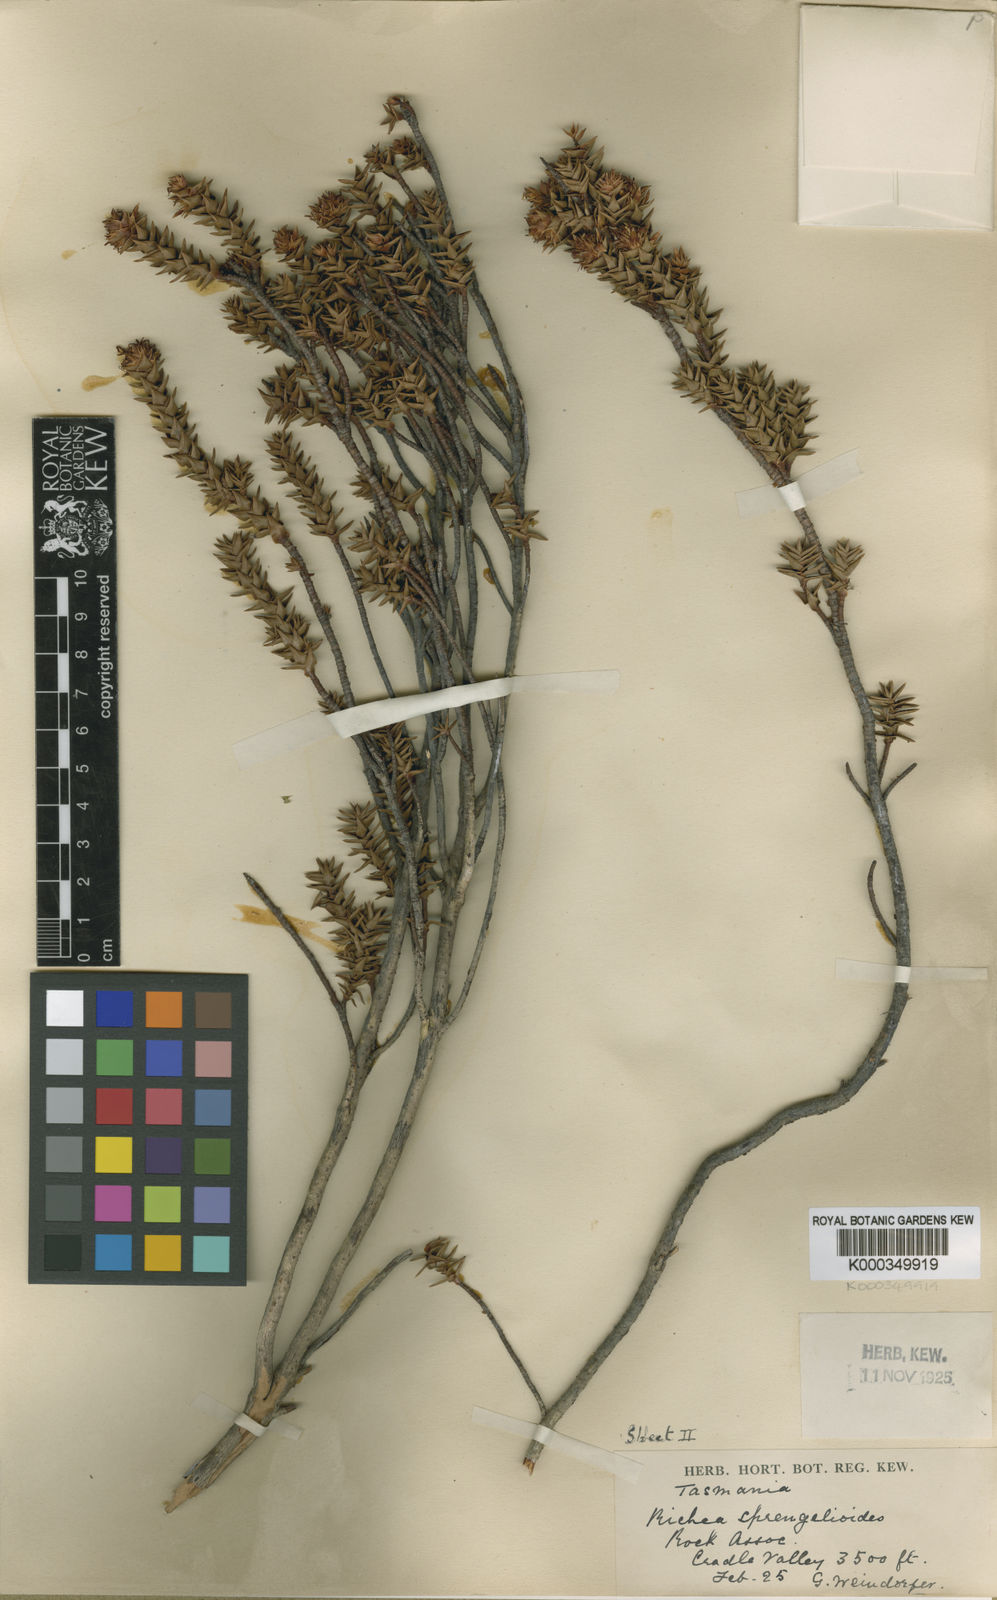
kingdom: Plantae
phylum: Tracheophyta
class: Magnoliopsida
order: Ericales
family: Ericaceae
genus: Dracophyllum
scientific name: Dracophyllum sprengelioides
